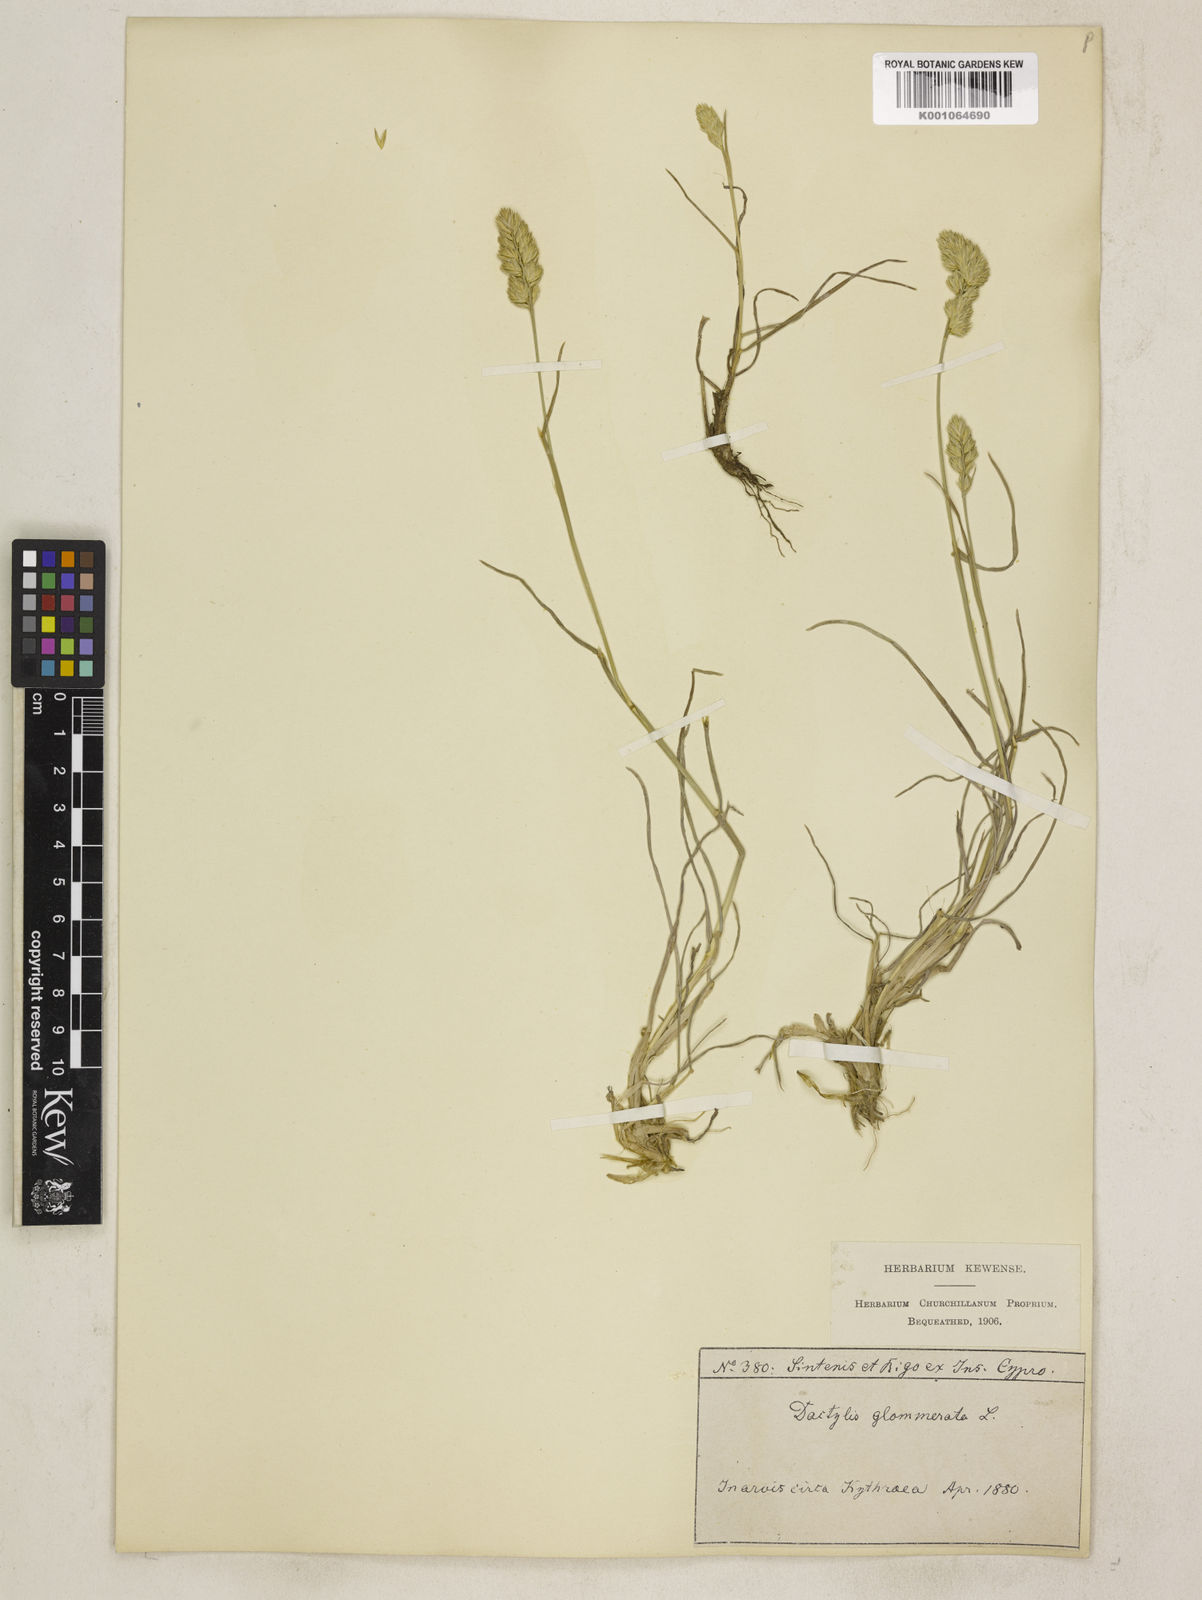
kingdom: Plantae
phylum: Tracheophyta
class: Liliopsida
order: Poales
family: Poaceae
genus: Dactylis
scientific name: Dactylis glomerata
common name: Orchardgrass
